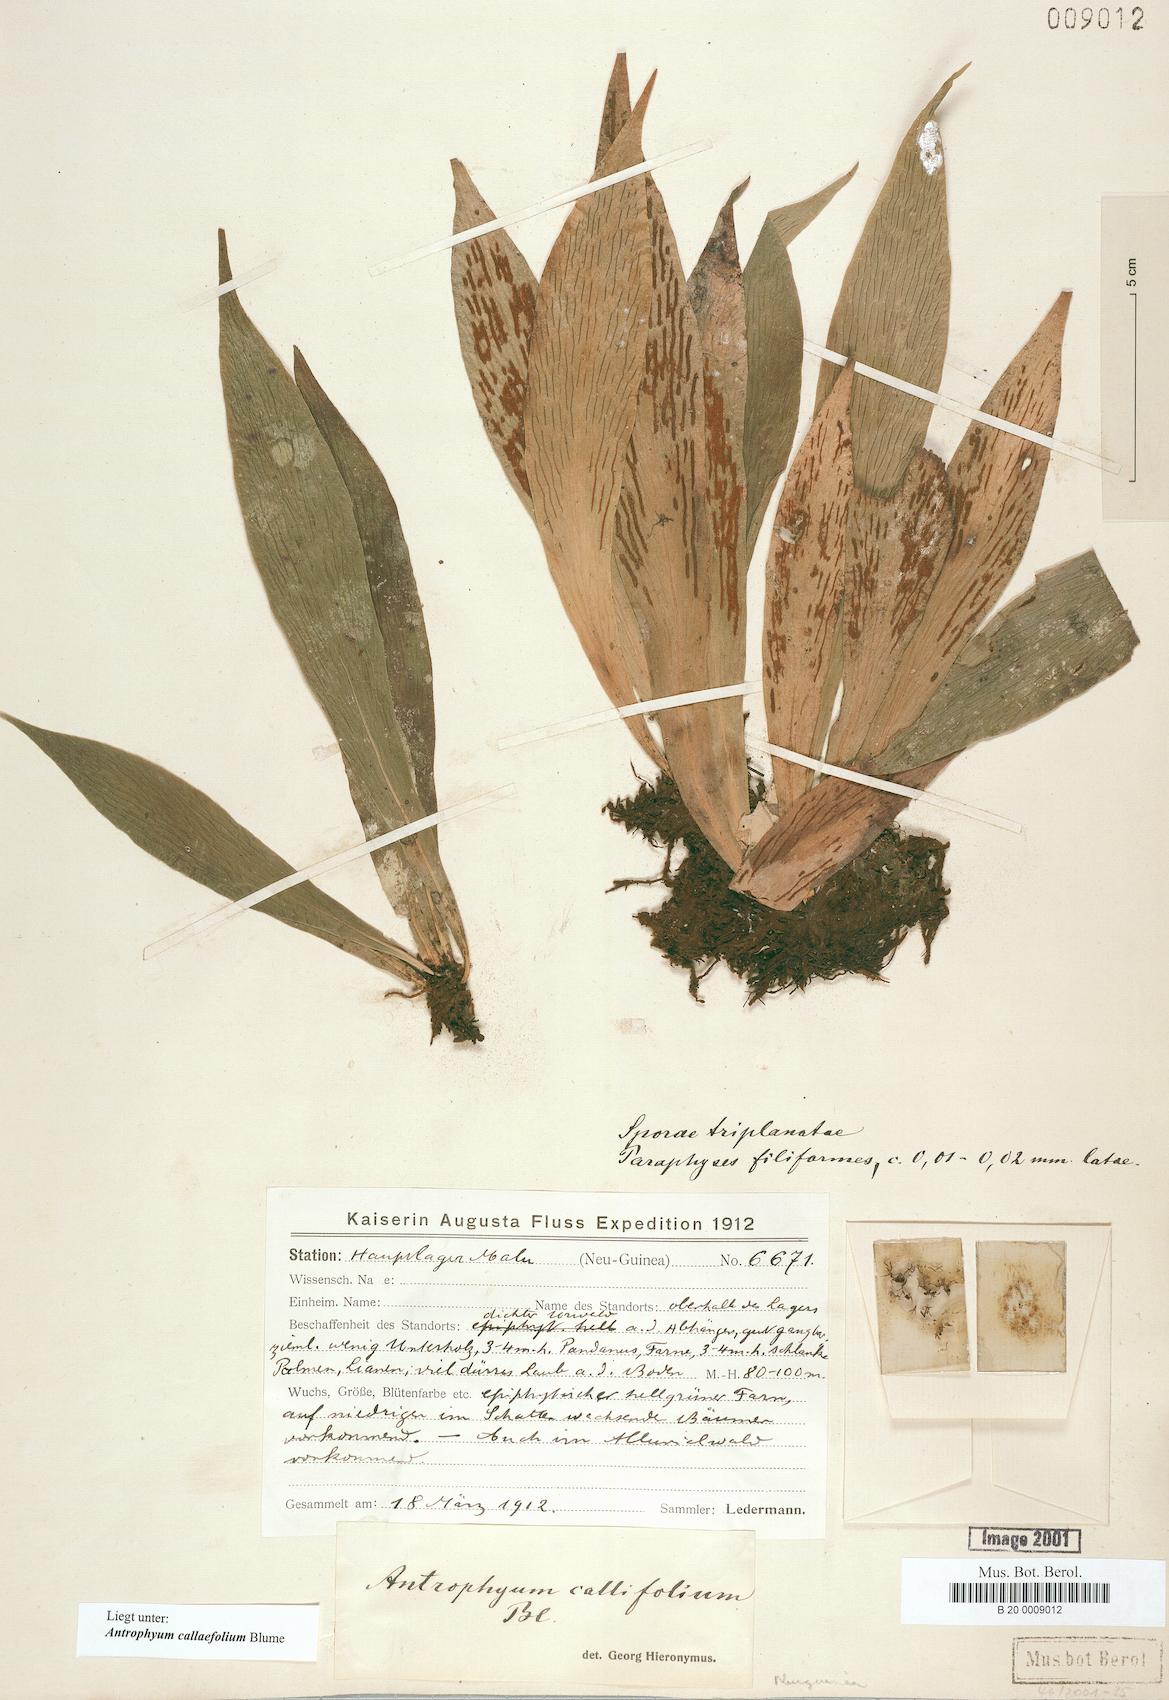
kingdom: Plantae
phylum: Tracheophyta
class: Polypodiopsida
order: Polypodiales
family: Pteridaceae
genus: Antrophyum
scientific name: Antrophyum callifolium
